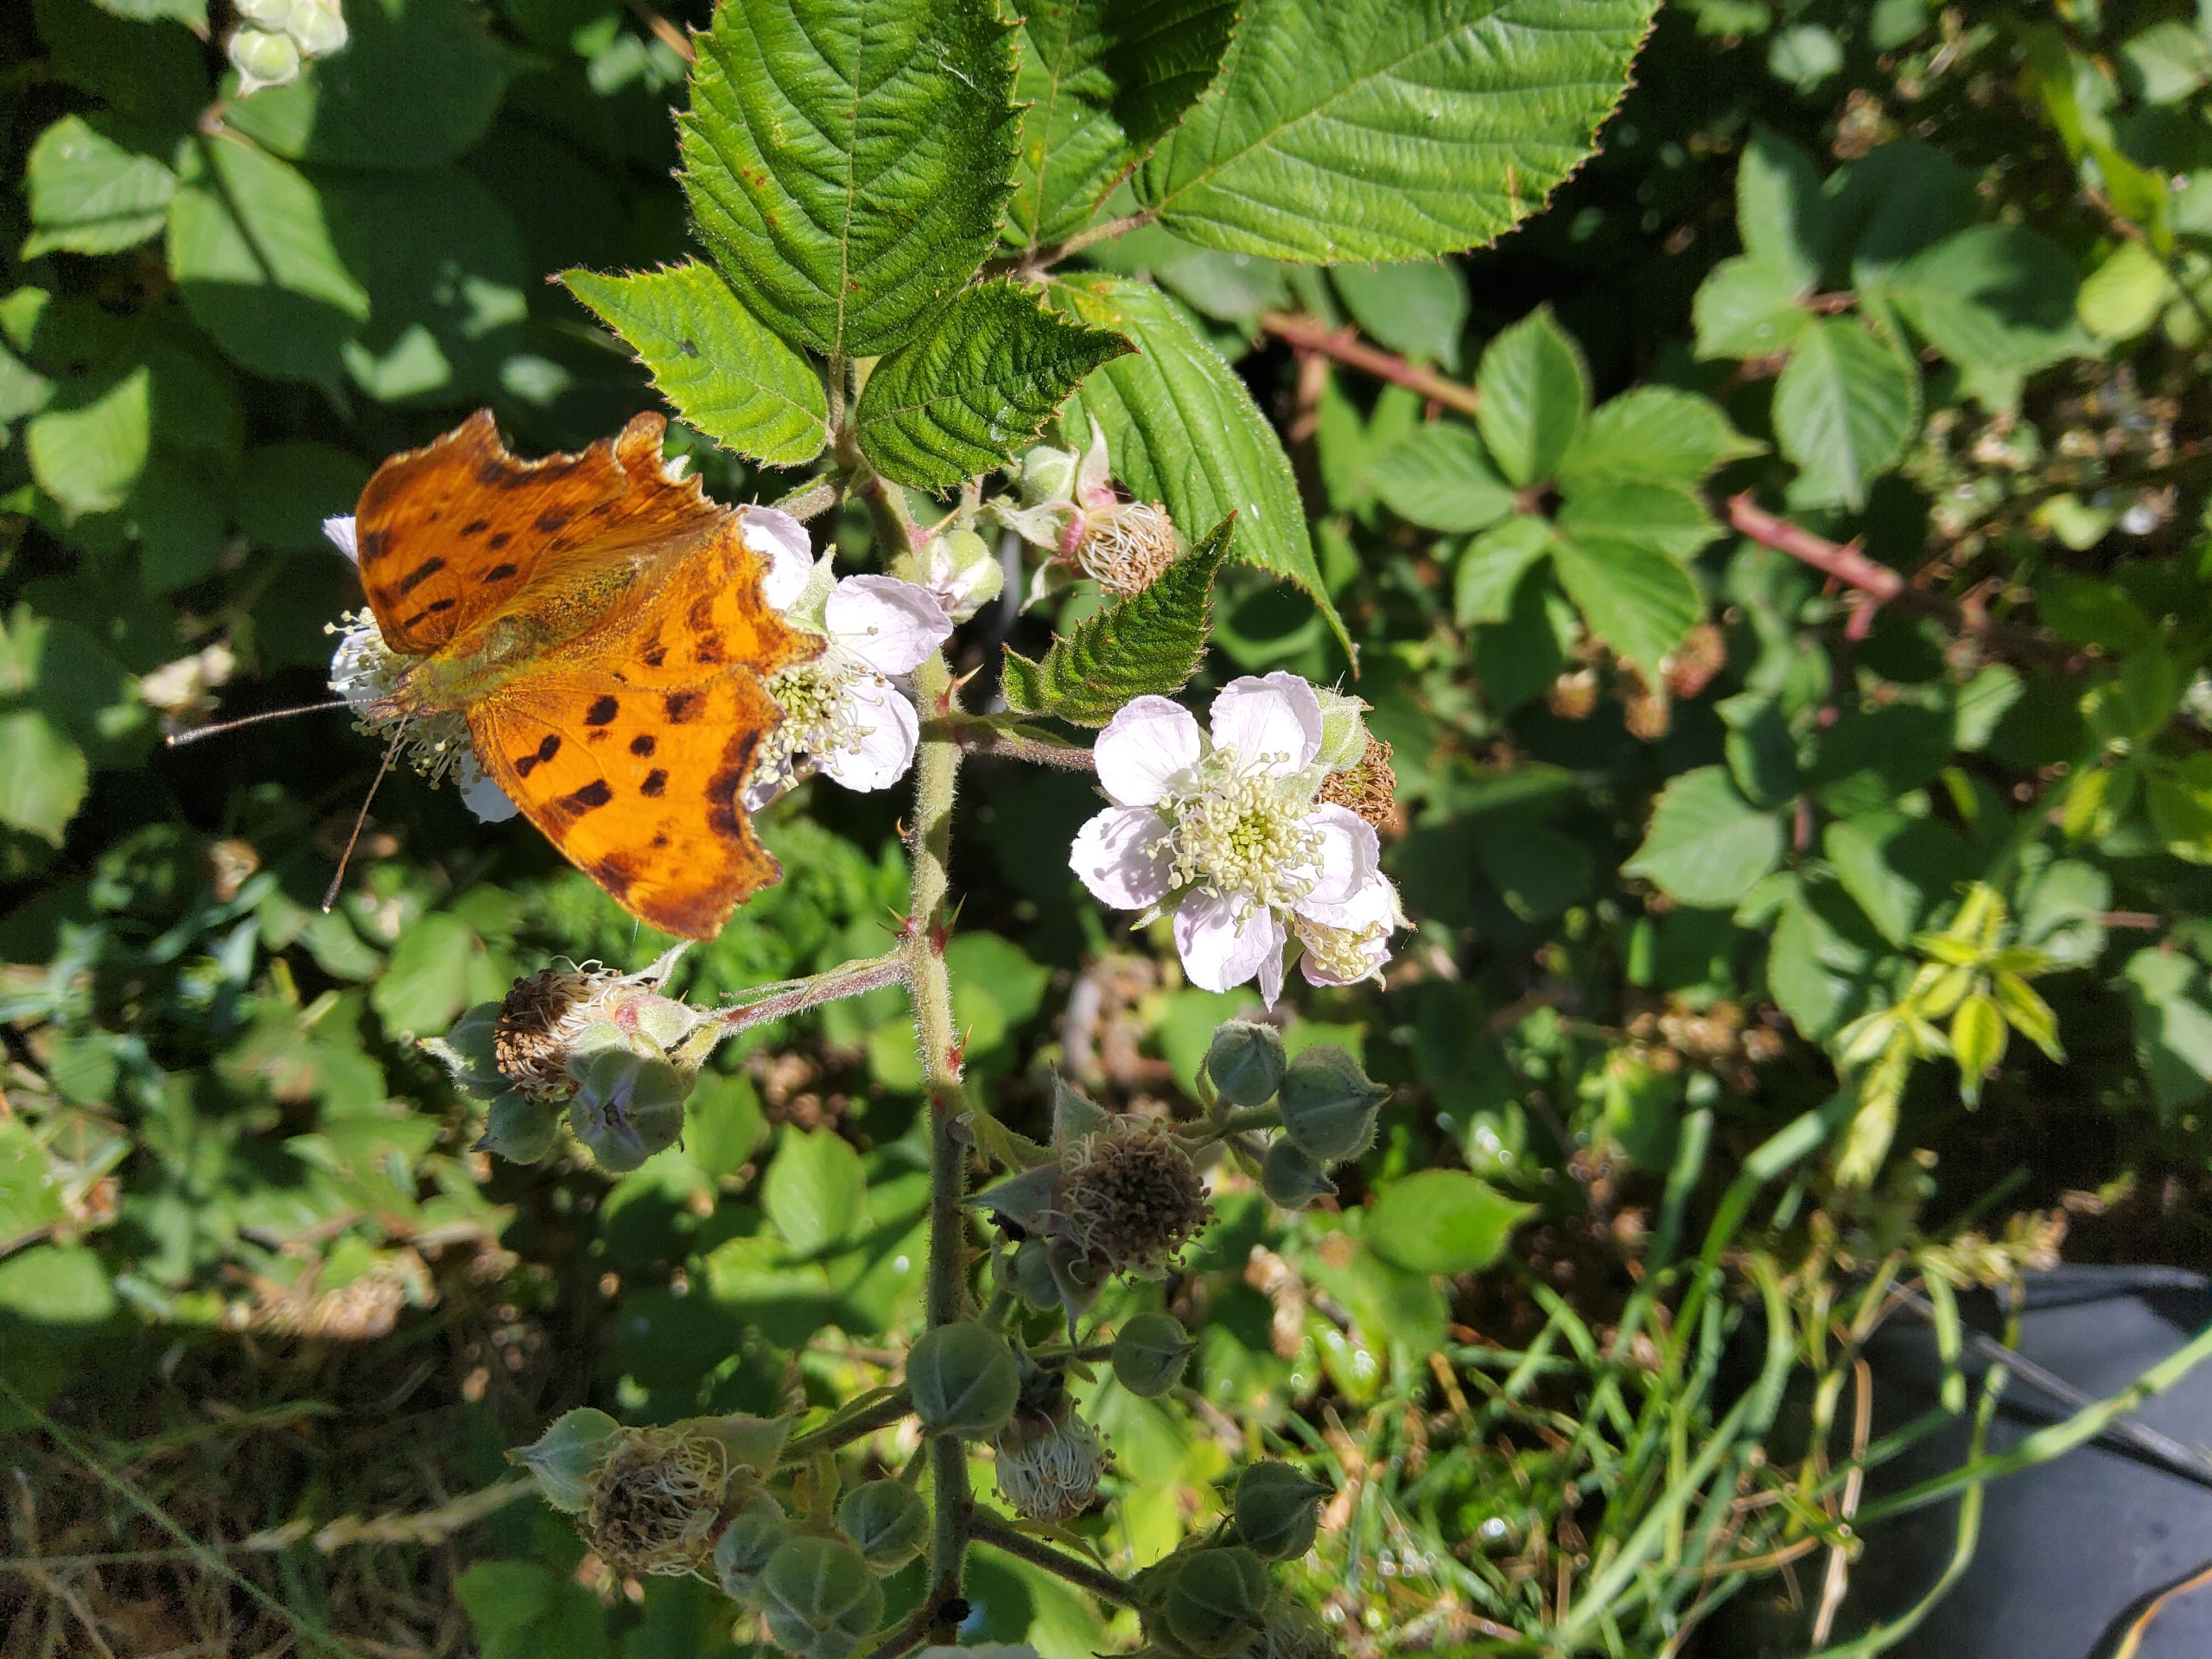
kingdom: Animalia
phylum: Arthropoda
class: Insecta
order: Lepidoptera
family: Nymphalidae
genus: Polygonia
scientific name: Polygonia c-album
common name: Det hvide C
